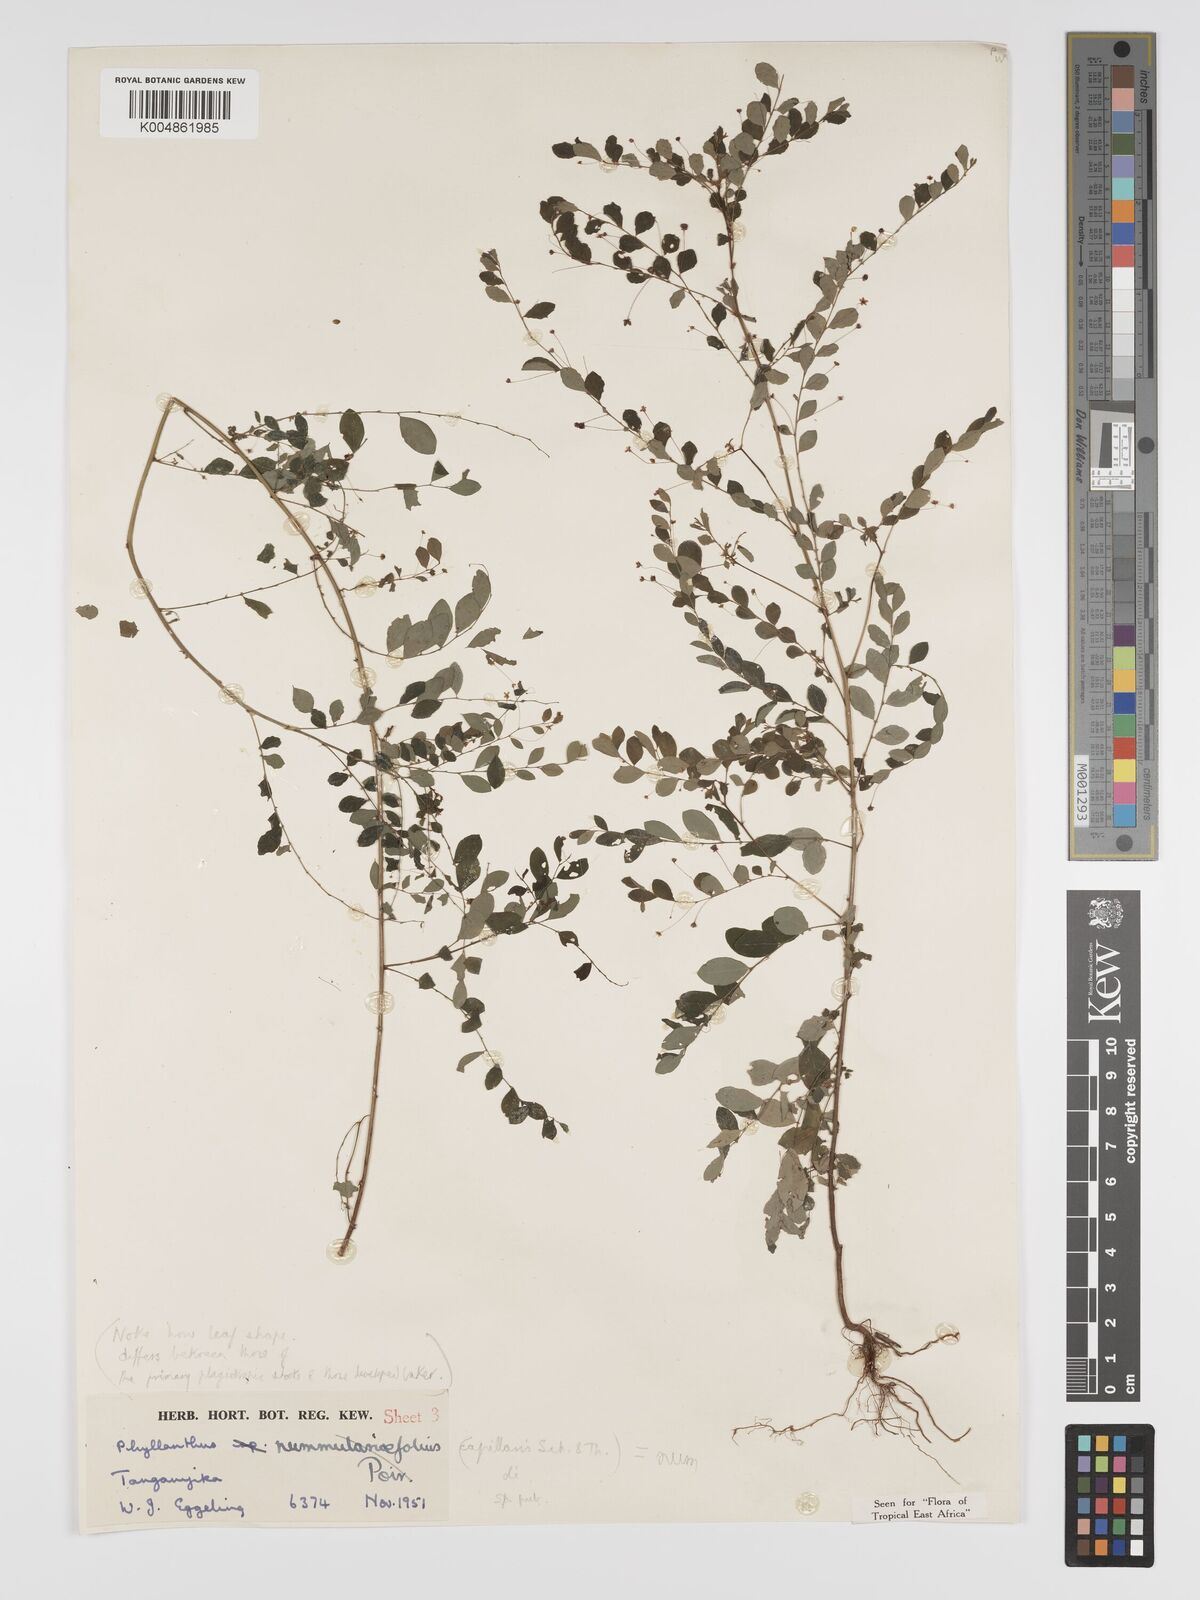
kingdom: Plantae
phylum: Tracheophyta
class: Magnoliopsida
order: Malpighiales
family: Phyllanthaceae
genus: Phyllanthus
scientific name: Phyllanthus nummulariifolius
